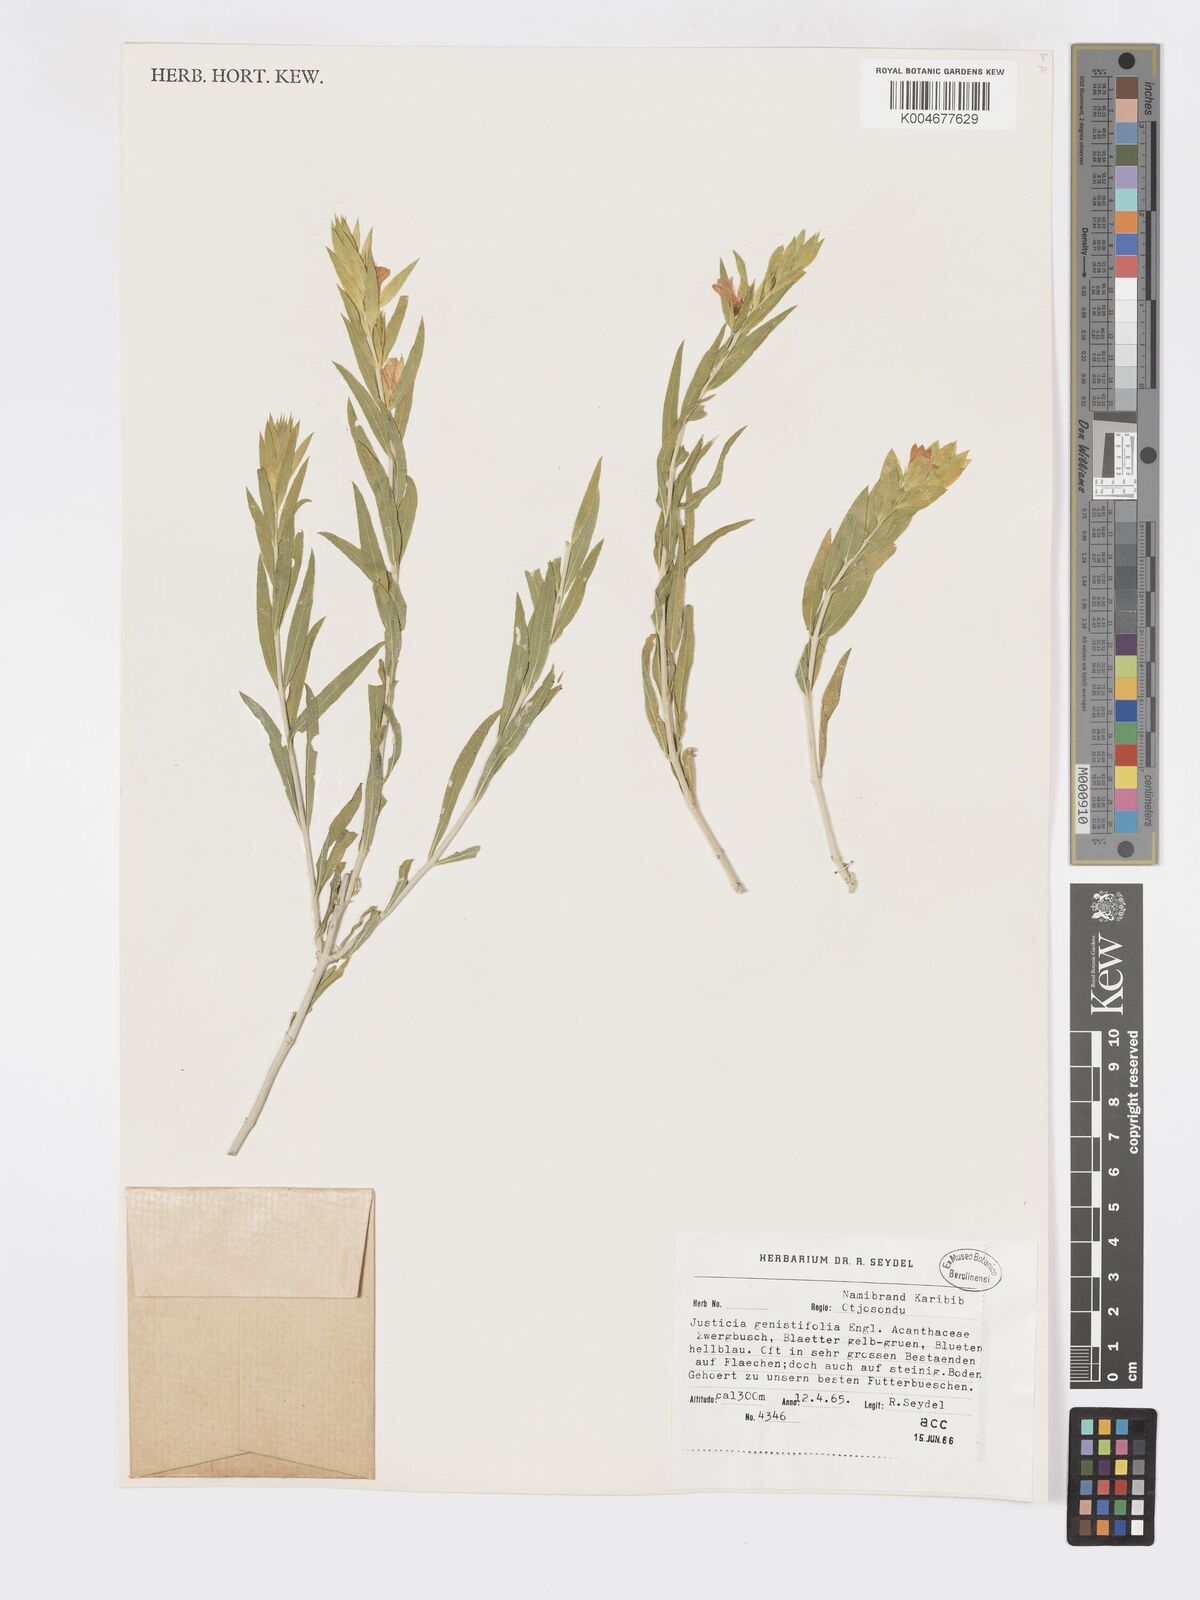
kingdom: Plantae
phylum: Tracheophyta
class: Magnoliopsida
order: Lamiales
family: Acanthaceae
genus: Pogonospermum
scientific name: Pogonospermum
